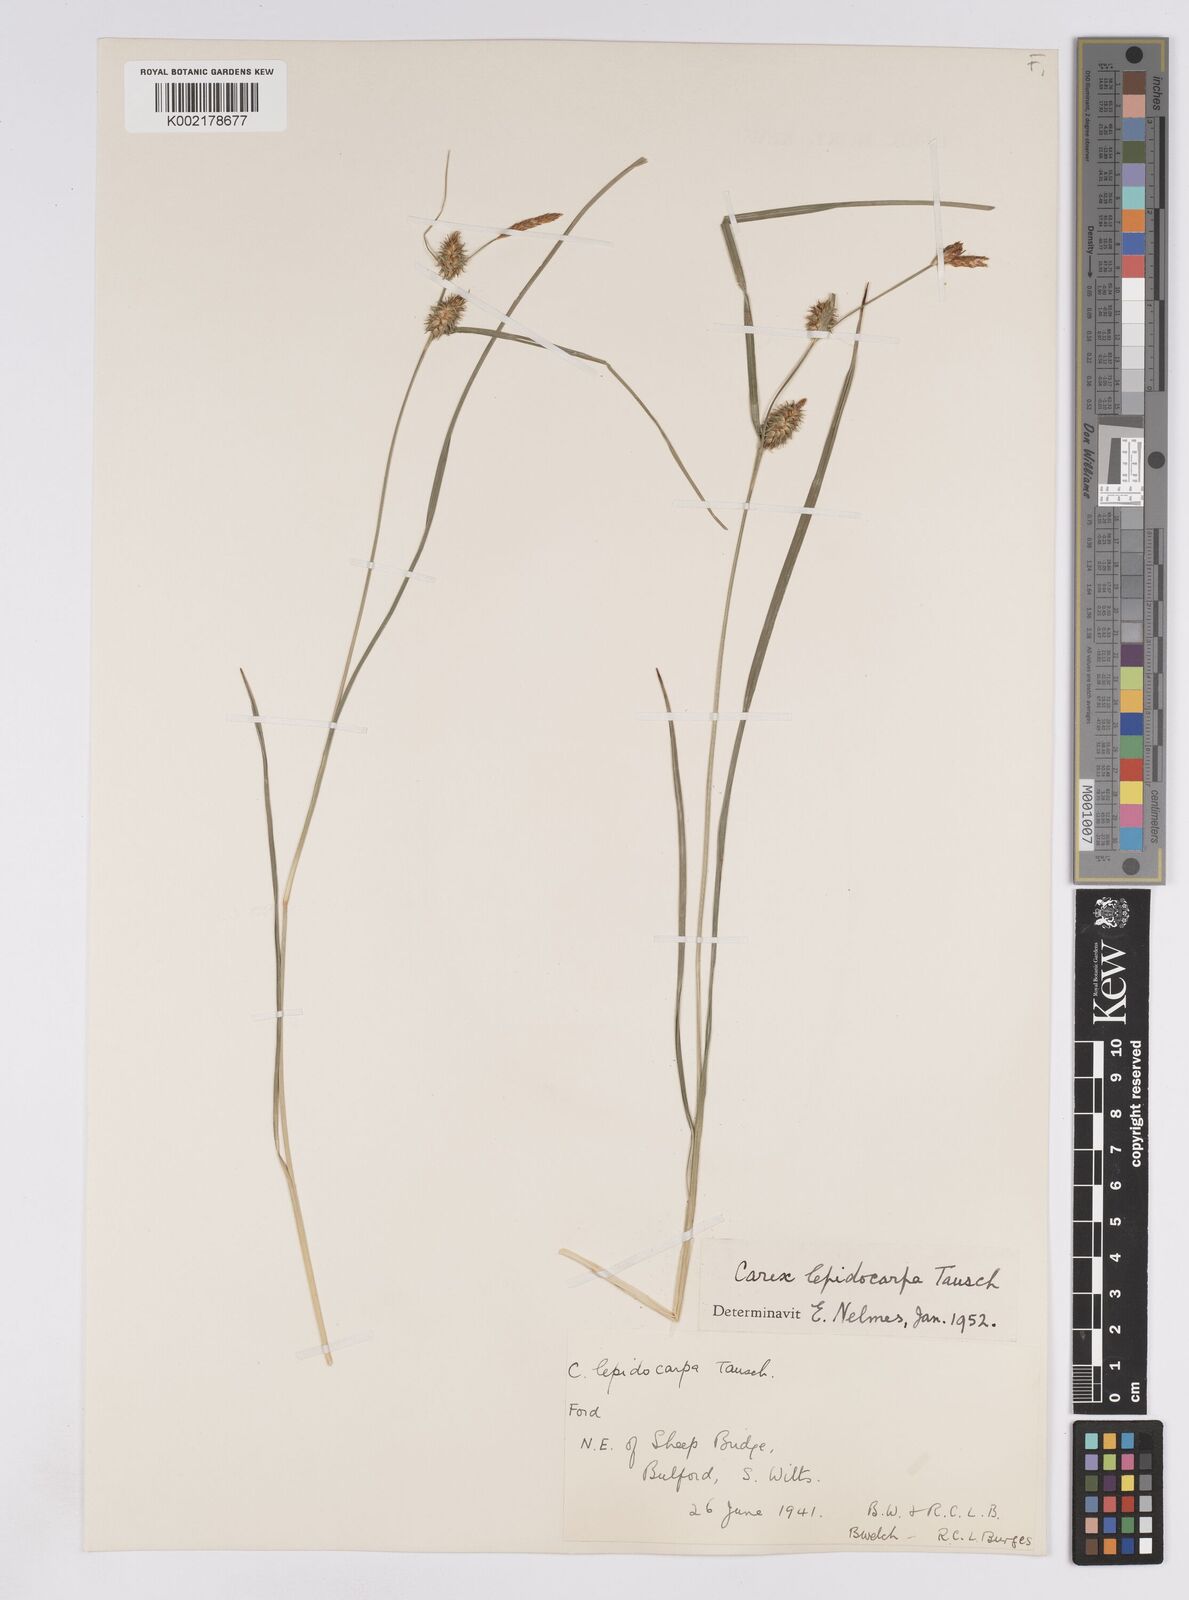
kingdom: Plantae
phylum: Tracheophyta
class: Liliopsida
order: Poales
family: Cyperaceae
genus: Carex
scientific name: Carex lepidocarpa
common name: Long-stalked yellow-sedge
